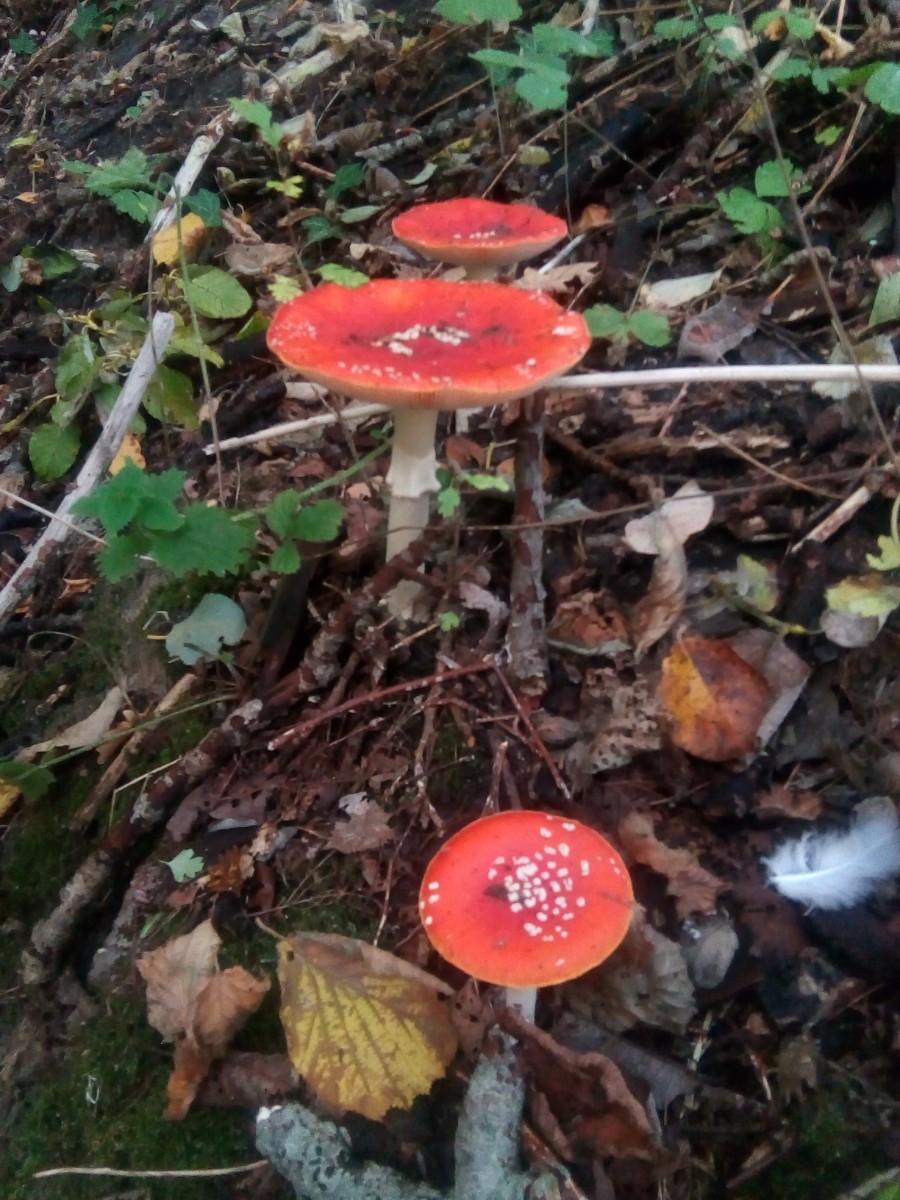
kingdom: Fungi
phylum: Basidiomycota
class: Agaricomycetes
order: Agaricales
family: Amanitaceae
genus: Amanita
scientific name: Amanita muscaria
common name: rød fluesvamp
